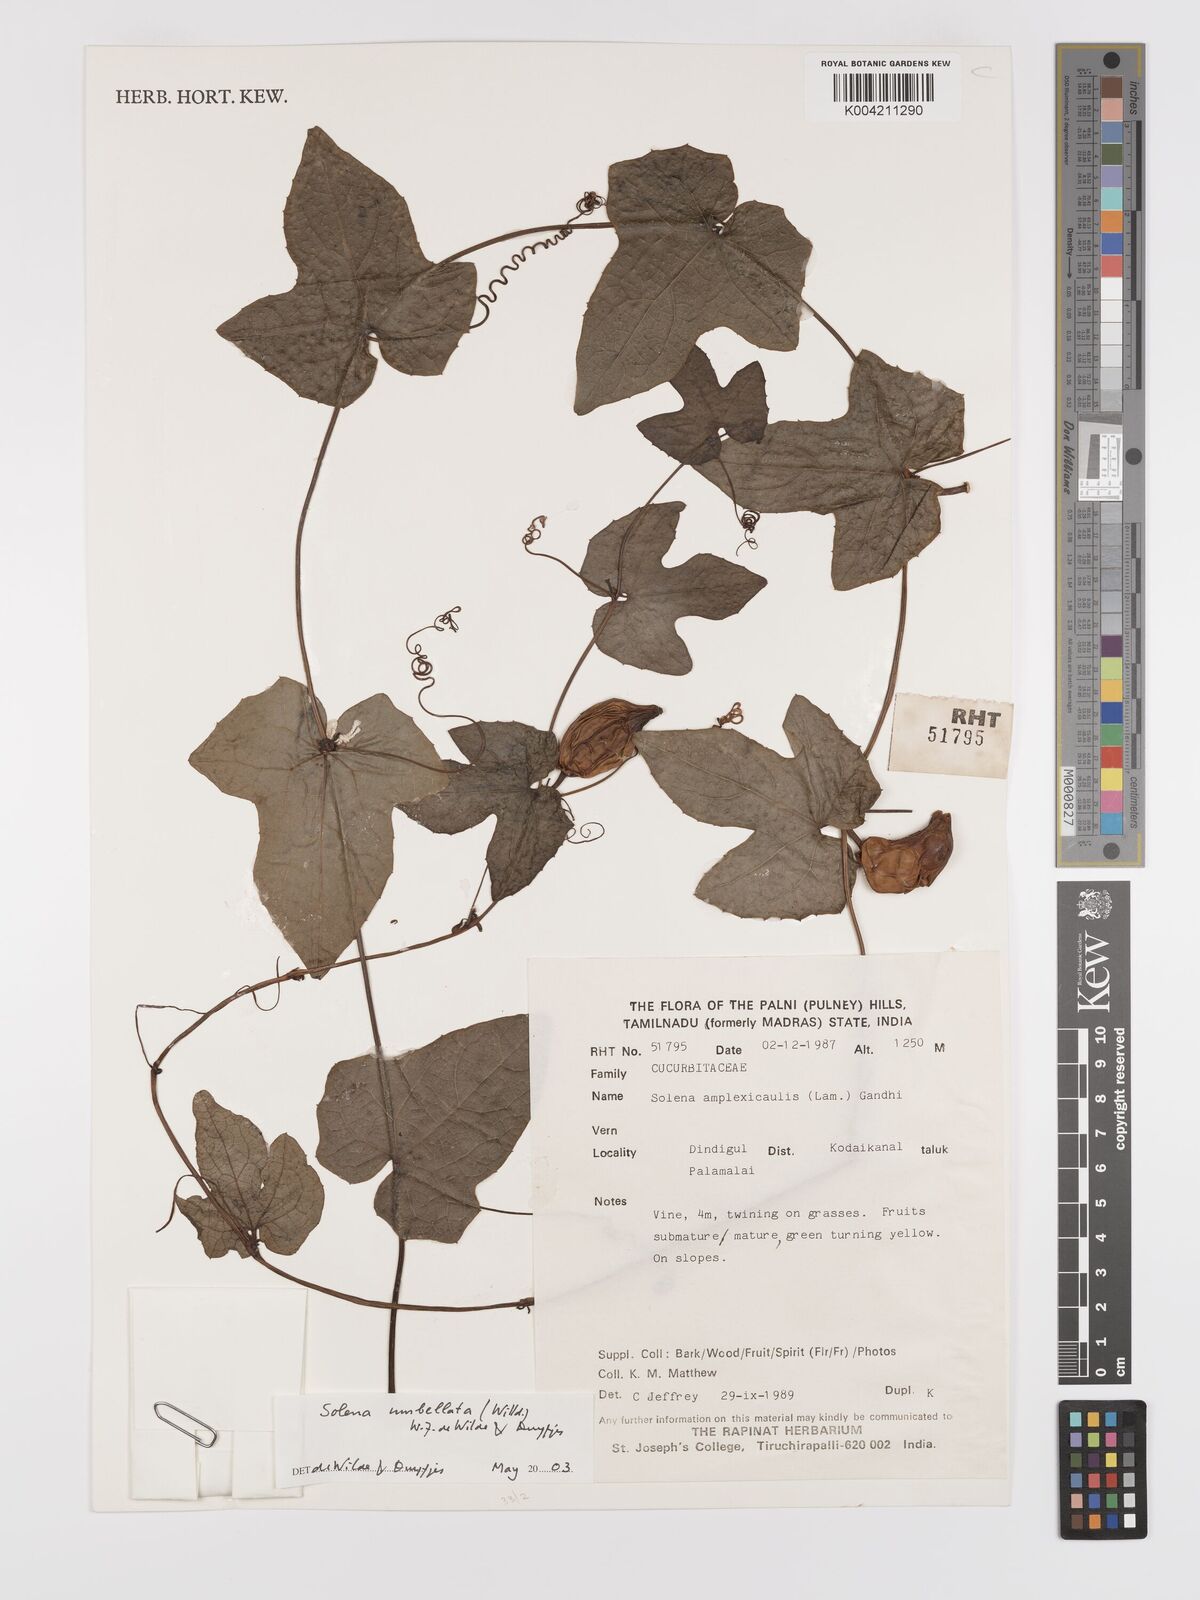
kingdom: Plantae
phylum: Tracheophyta
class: Magnoliopsida
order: Cucurbitales
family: Cucurbitaceae
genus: Solena
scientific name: Solena amplexicaulis
